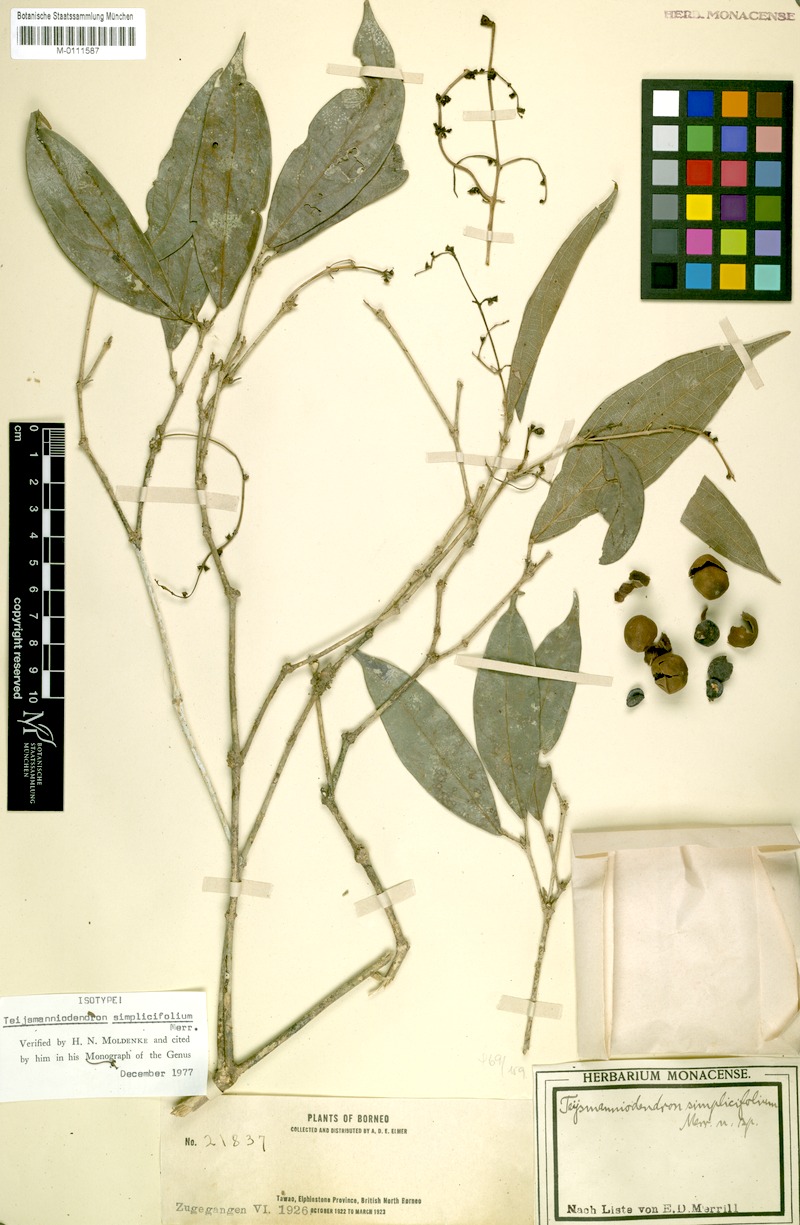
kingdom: Plantae
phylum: Tracheophyta
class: Magnoliopsida
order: Lamiales
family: Lamiaceae
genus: Teijsmanniodendron
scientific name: Teijsmanniodendron simplicifolium
